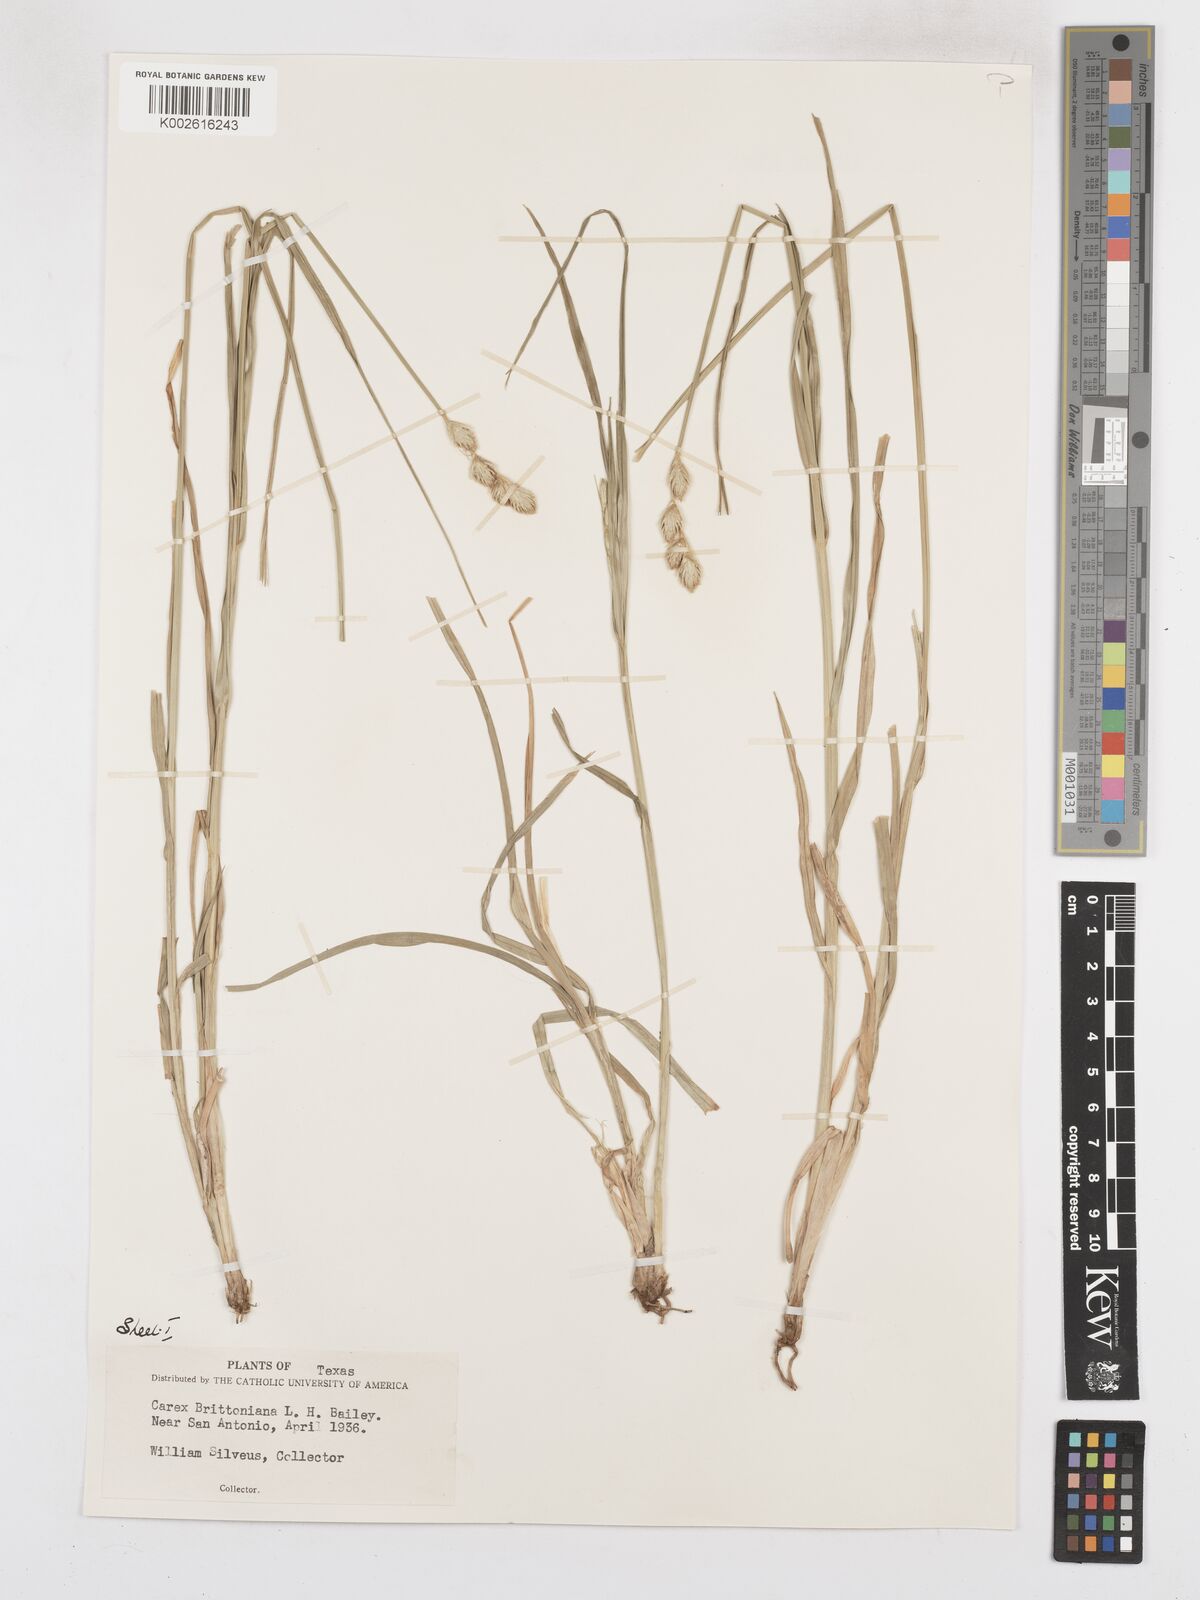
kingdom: Plantae
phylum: Tracheophyta
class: Liliopsida
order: Poales
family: Cyperaceae
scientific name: Cyperaceae
